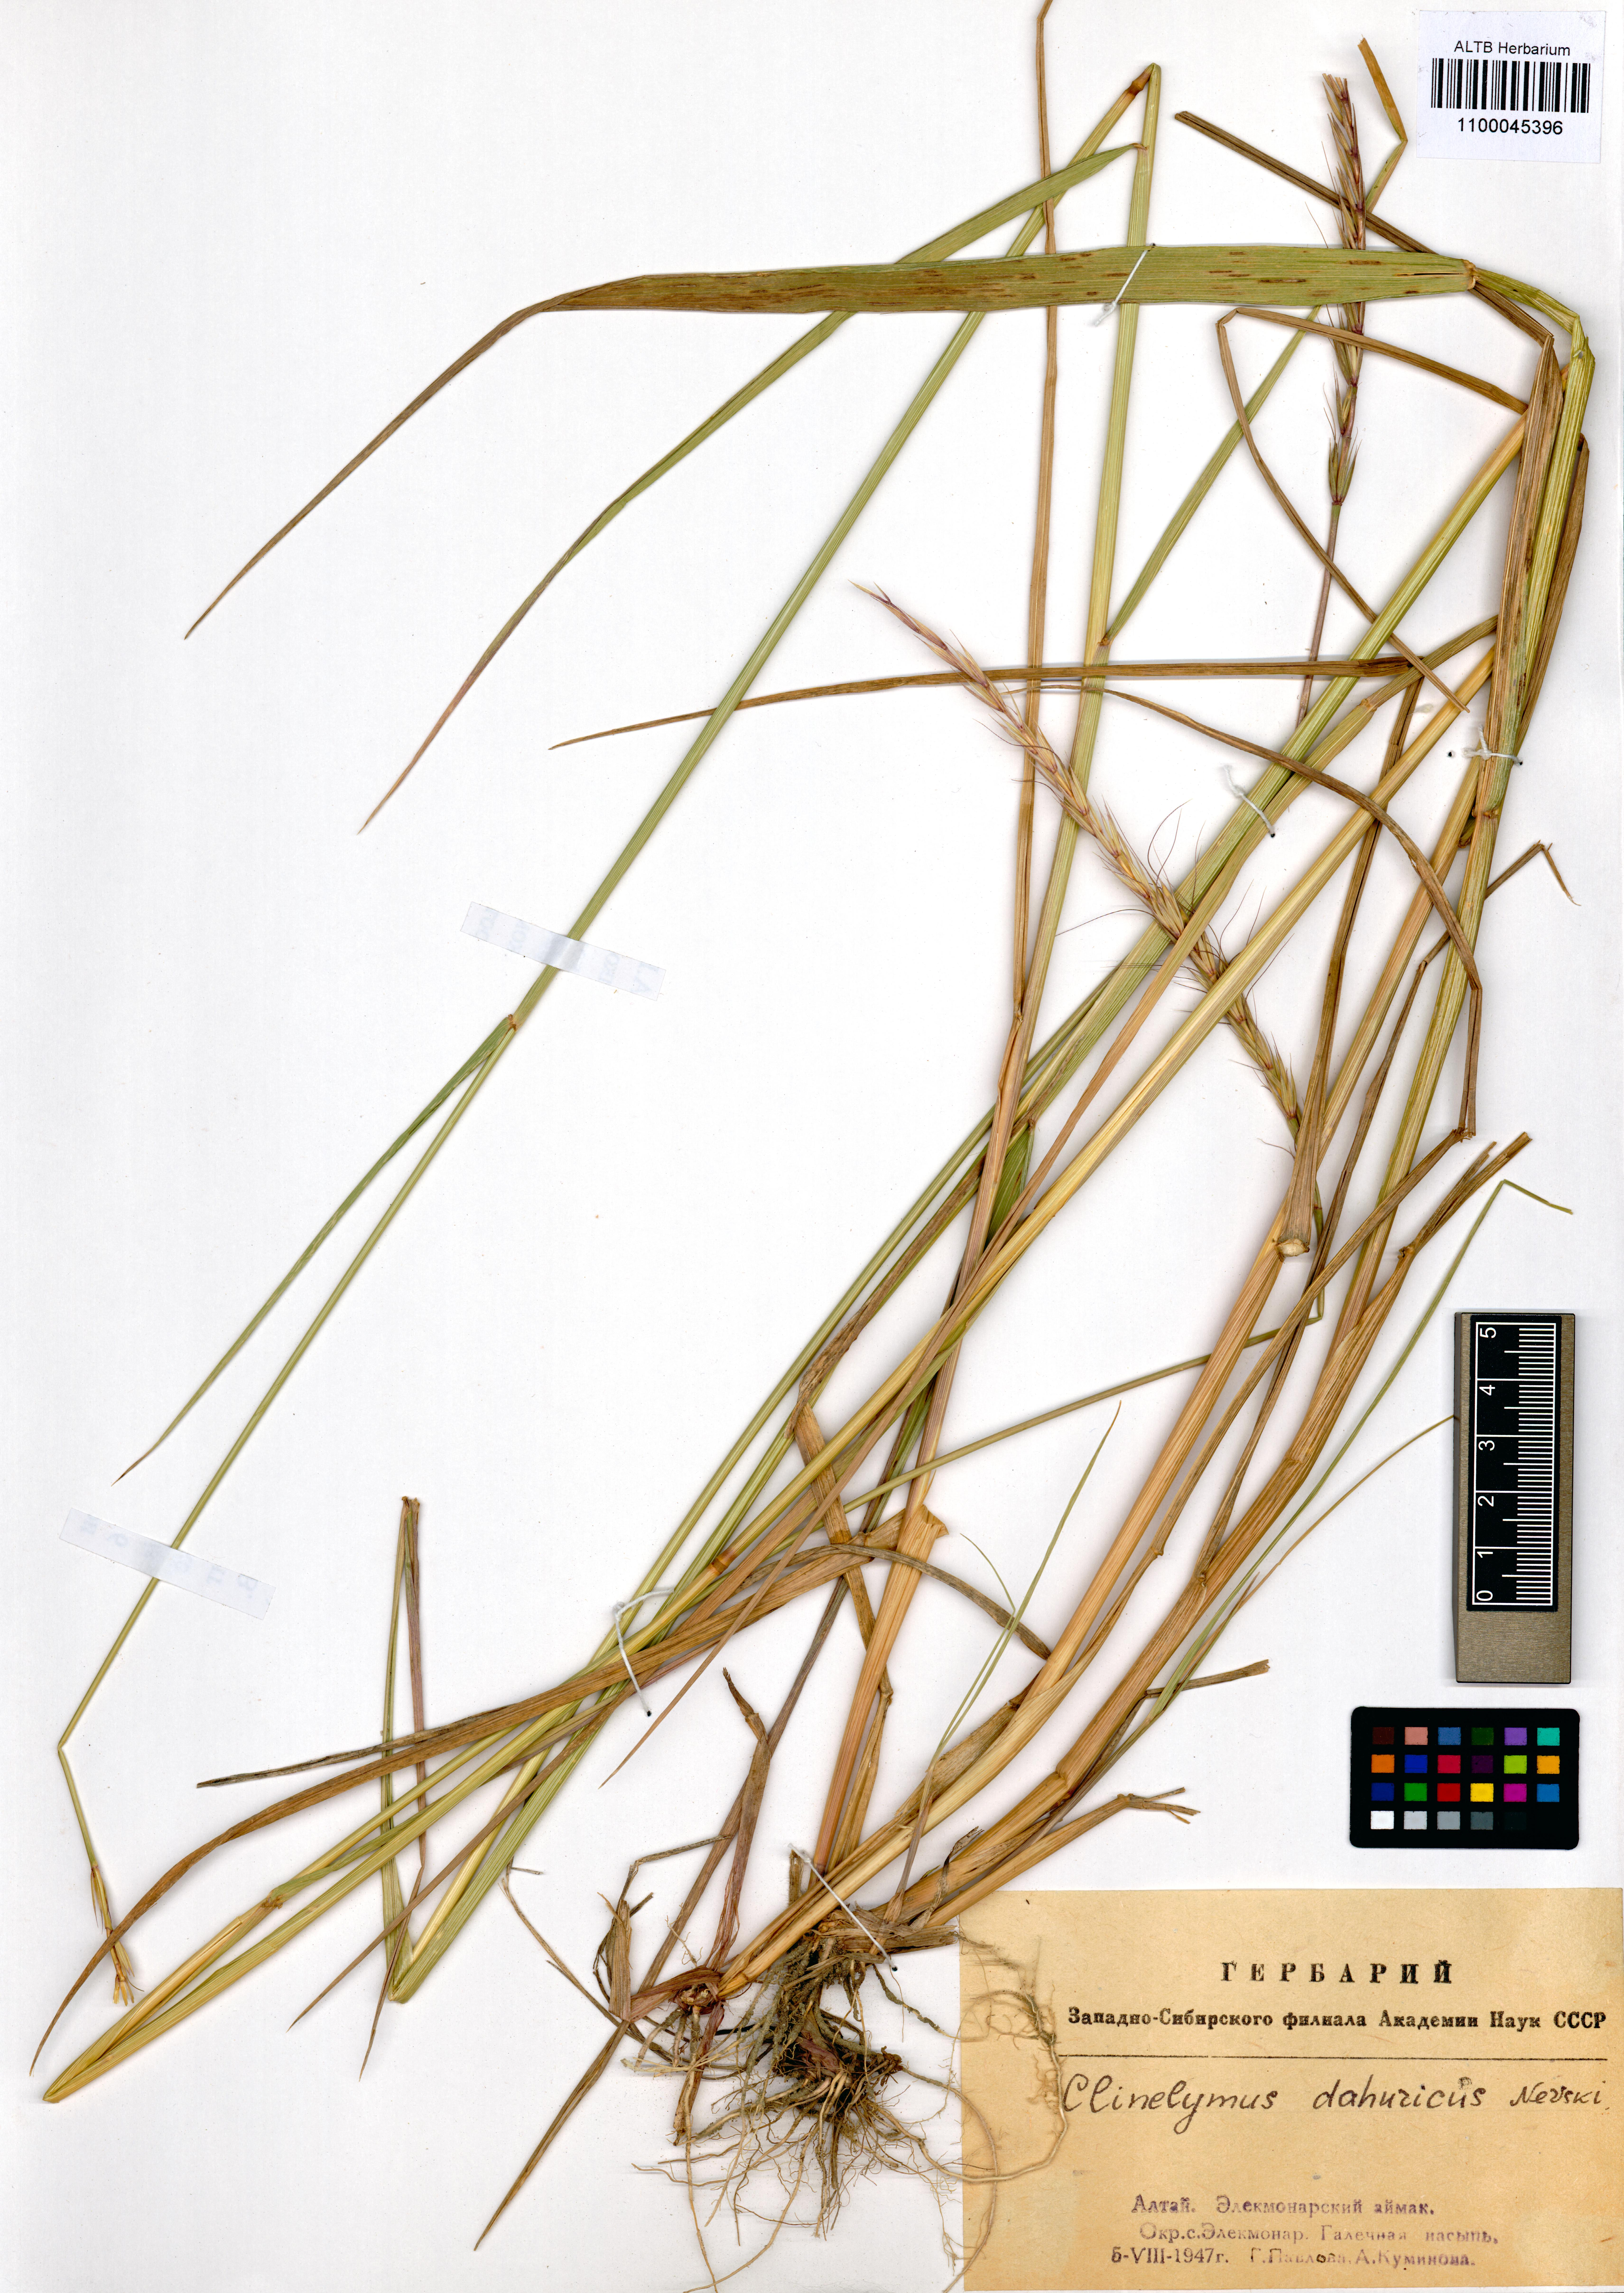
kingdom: Plantae
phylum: Tracheophyta
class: Liliopsida
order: Poales
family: Poaceae
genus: Elymus
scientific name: Elymus dahuricus
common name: Dahurian wild rye
